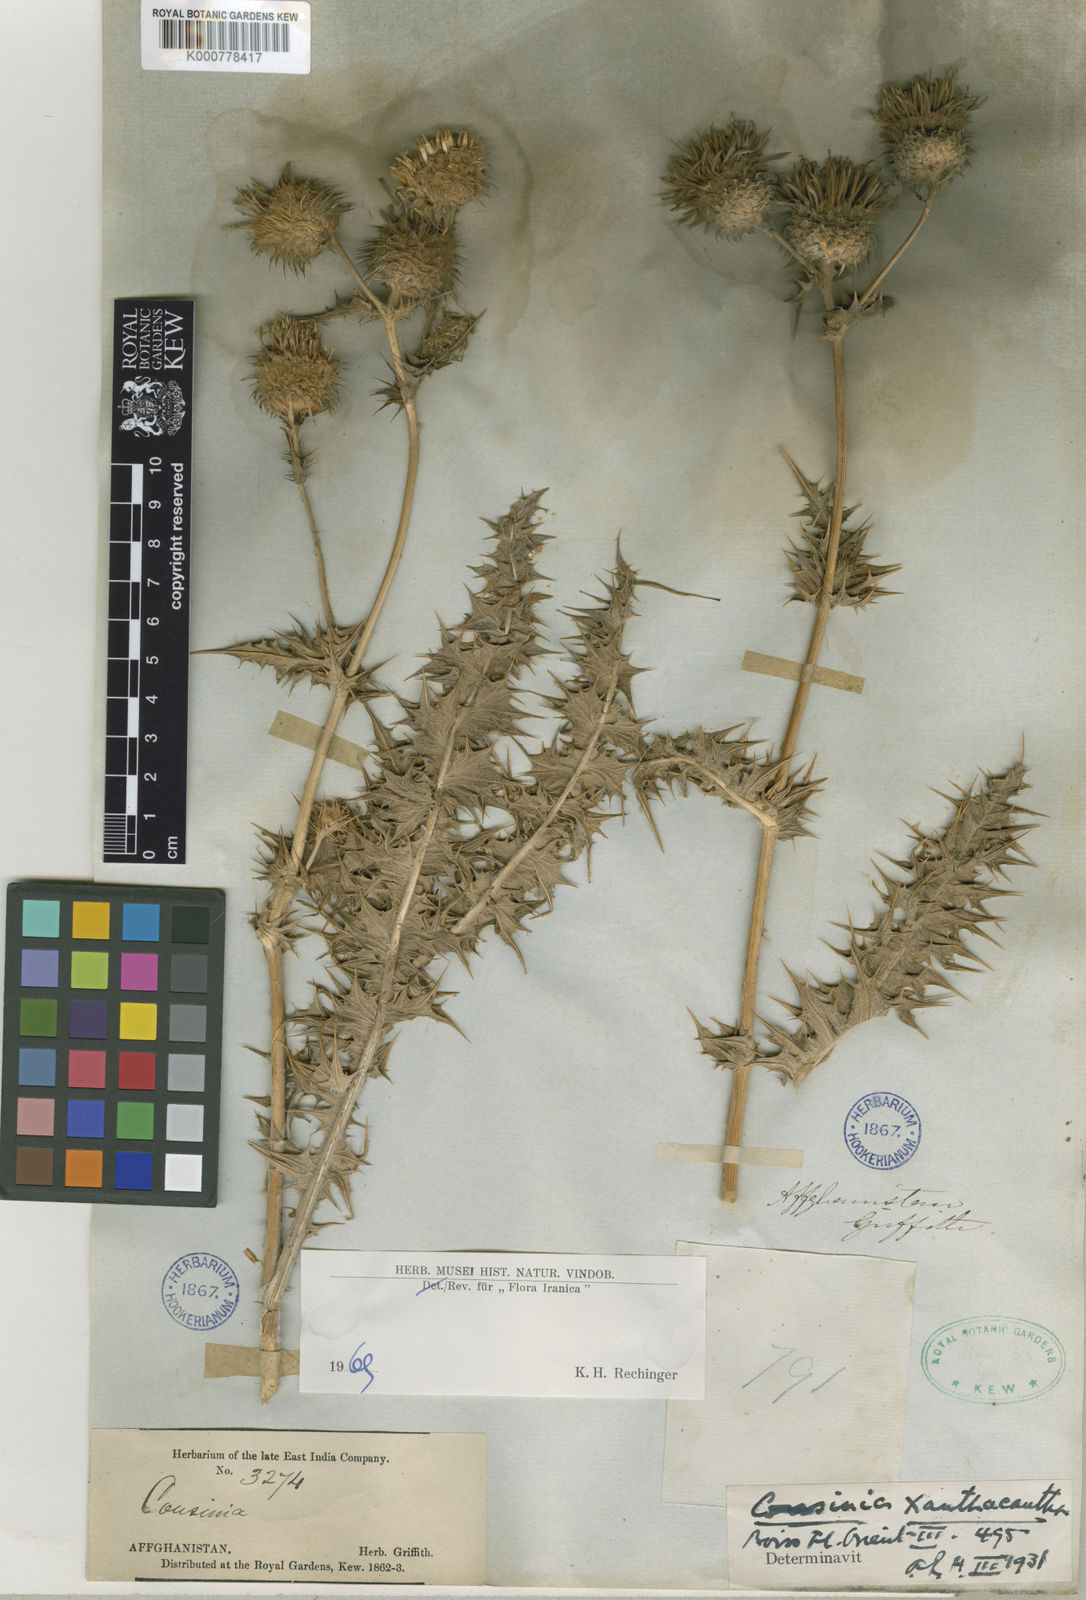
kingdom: Plantae
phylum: Tracheophyta
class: Magnoliopsida
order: Asterales
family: Asteraceae
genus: Cousinia
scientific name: Cousinia xanthacantha
